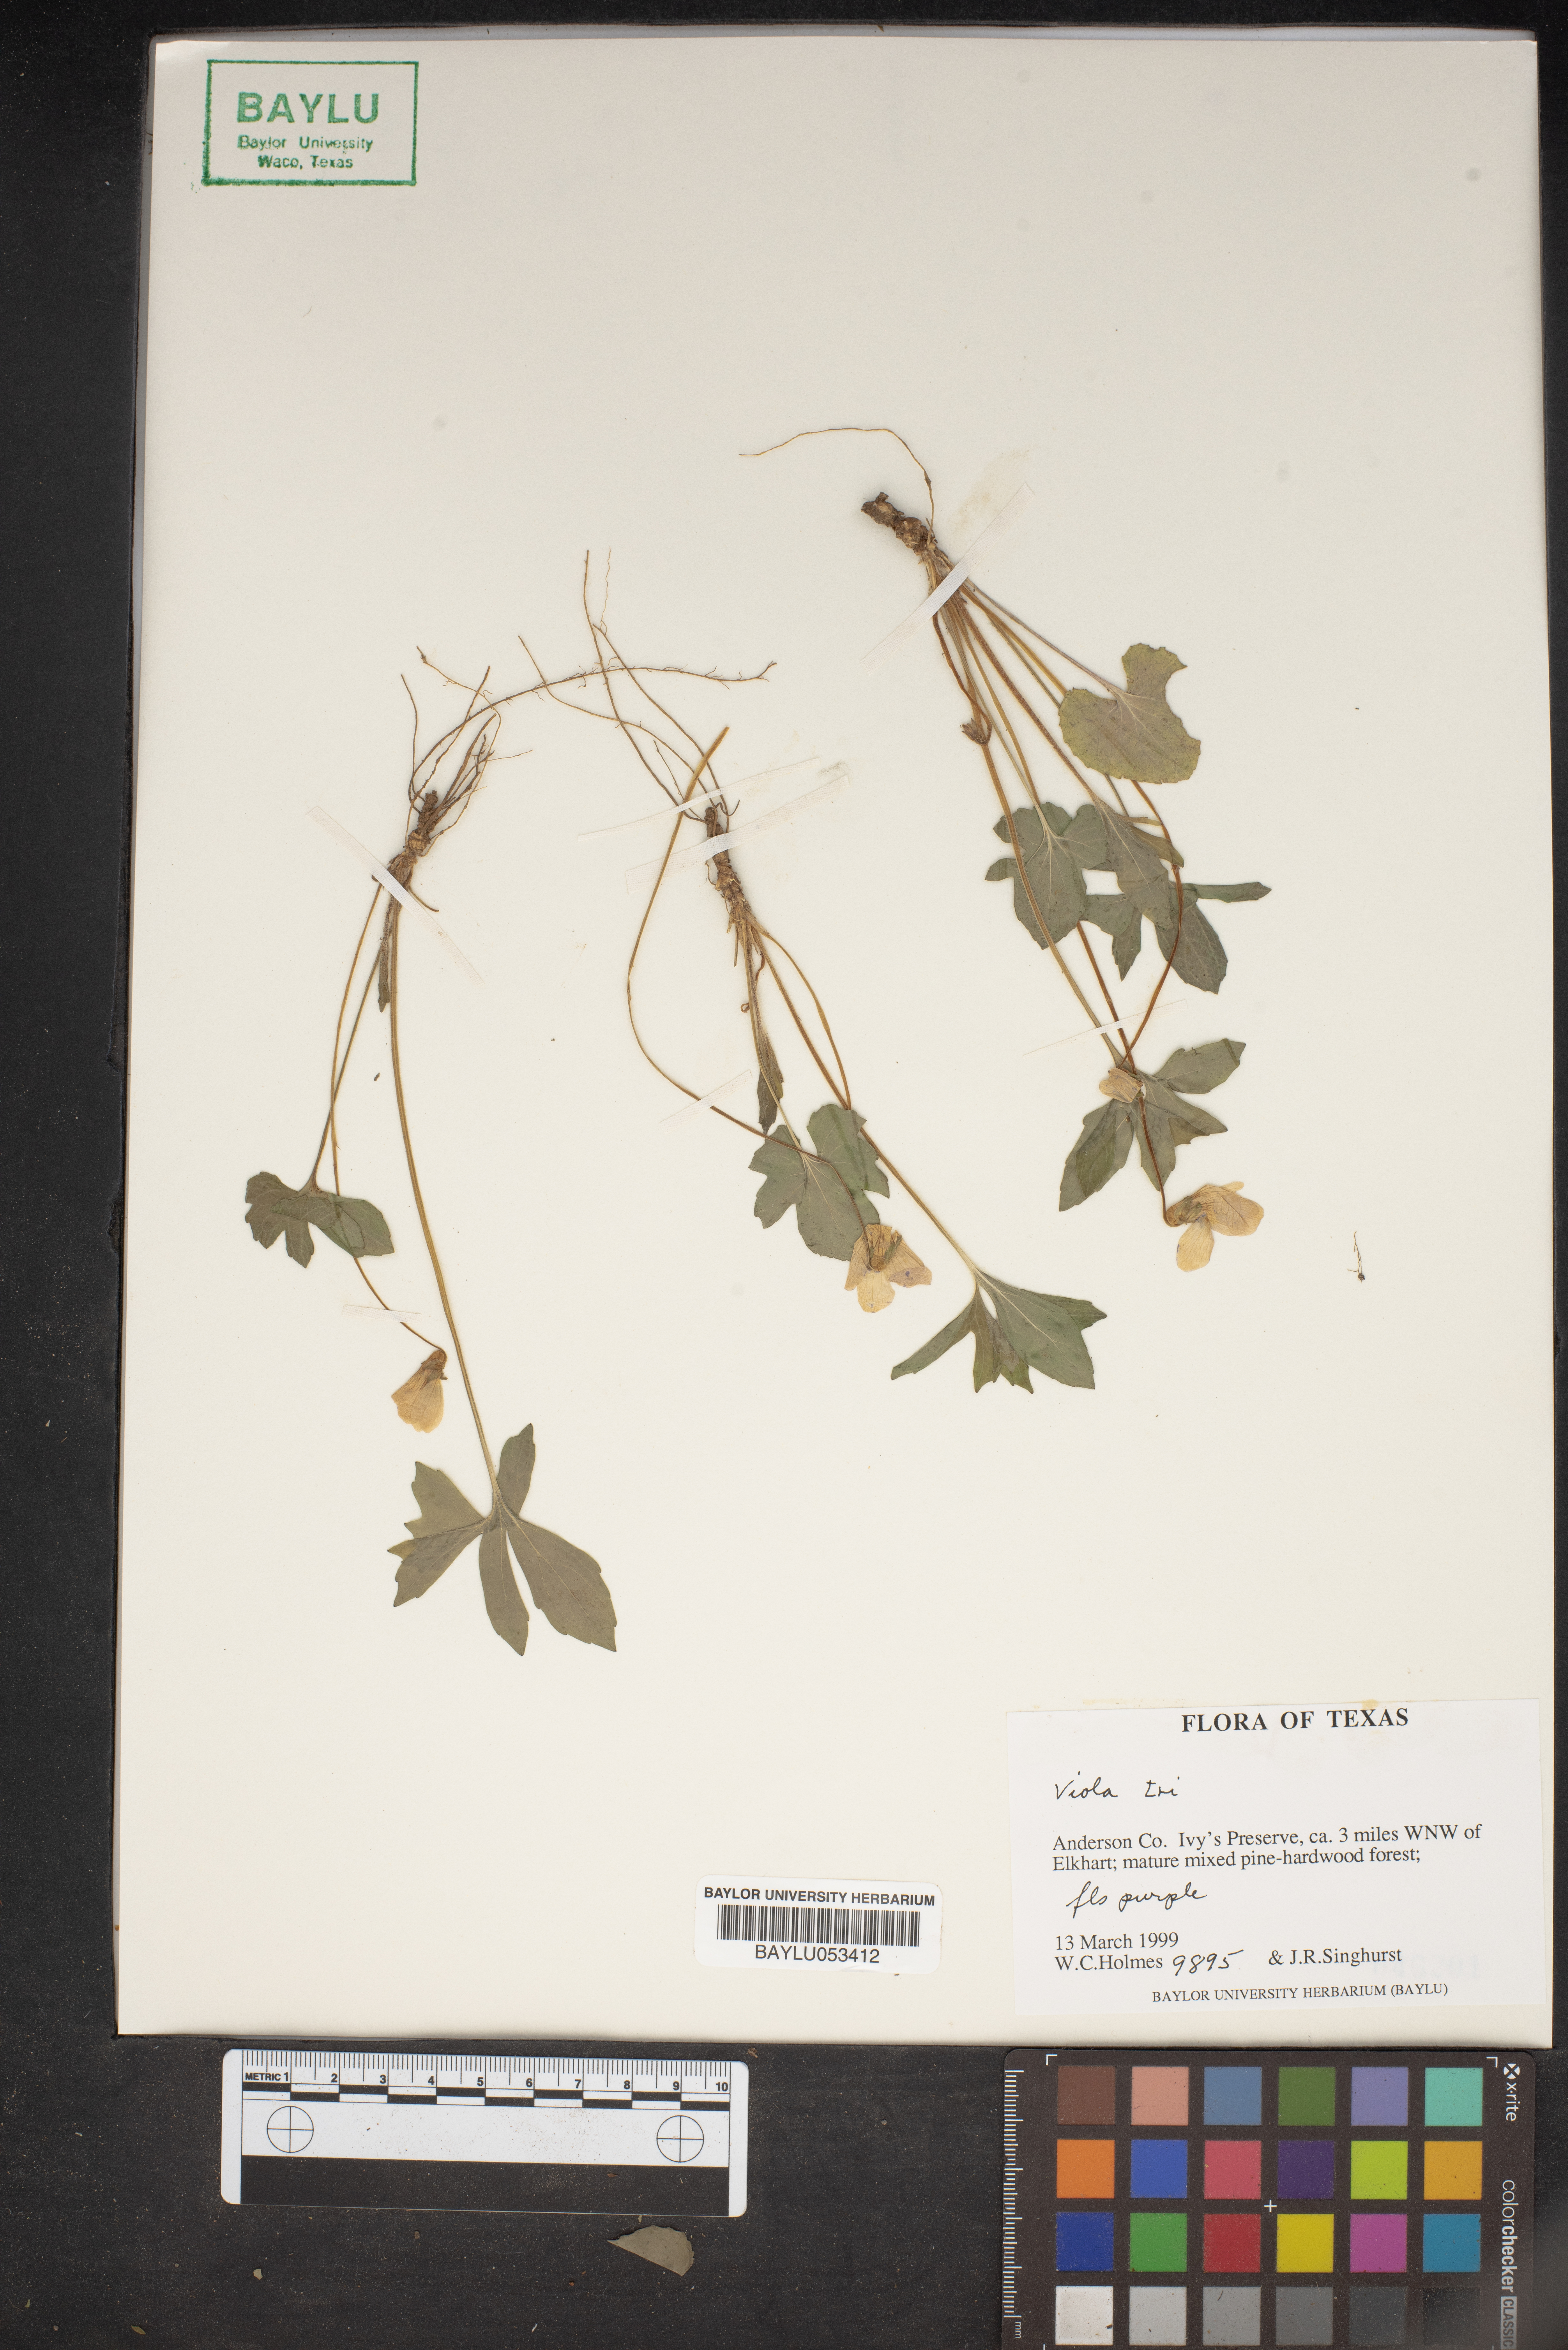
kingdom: Plantae
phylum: Tracheophyta
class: Magnoliopsida
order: Malpighiales
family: Violaceae
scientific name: Violaceae
